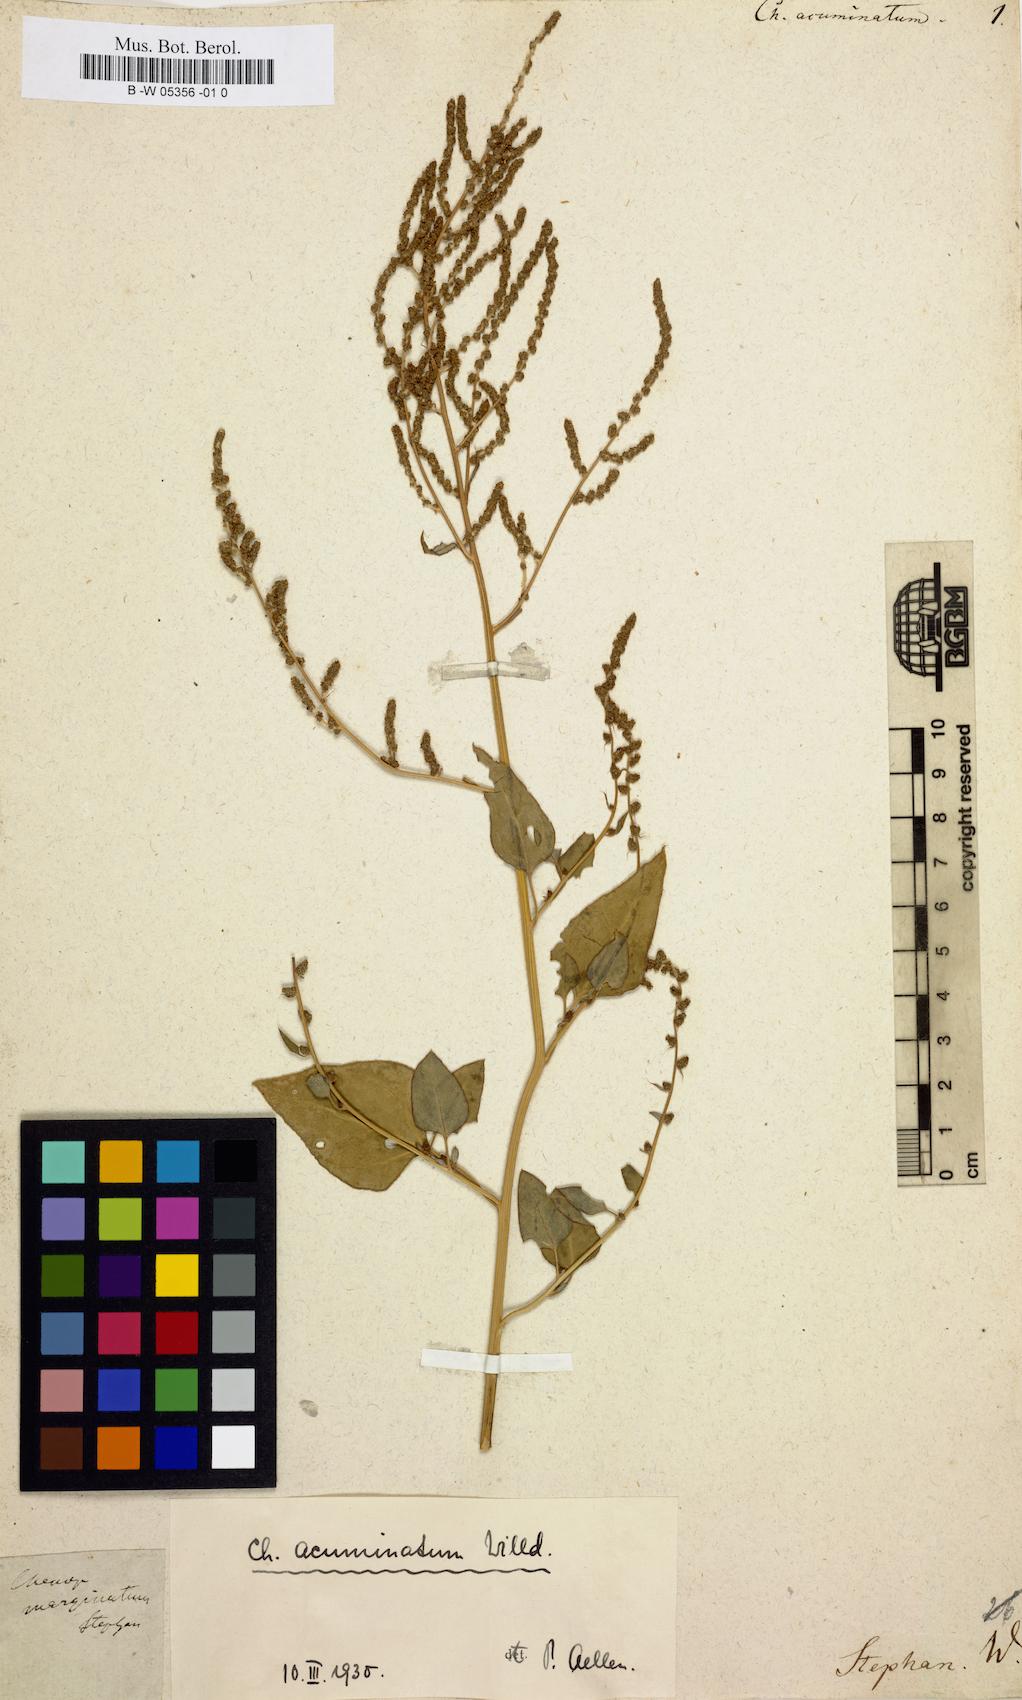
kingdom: Plantae
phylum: Tracheophyta
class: Magnoliopsida
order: Caryophyllales
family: Amaranthaceae
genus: Chenopodium
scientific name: Chenopodium acuminatum
